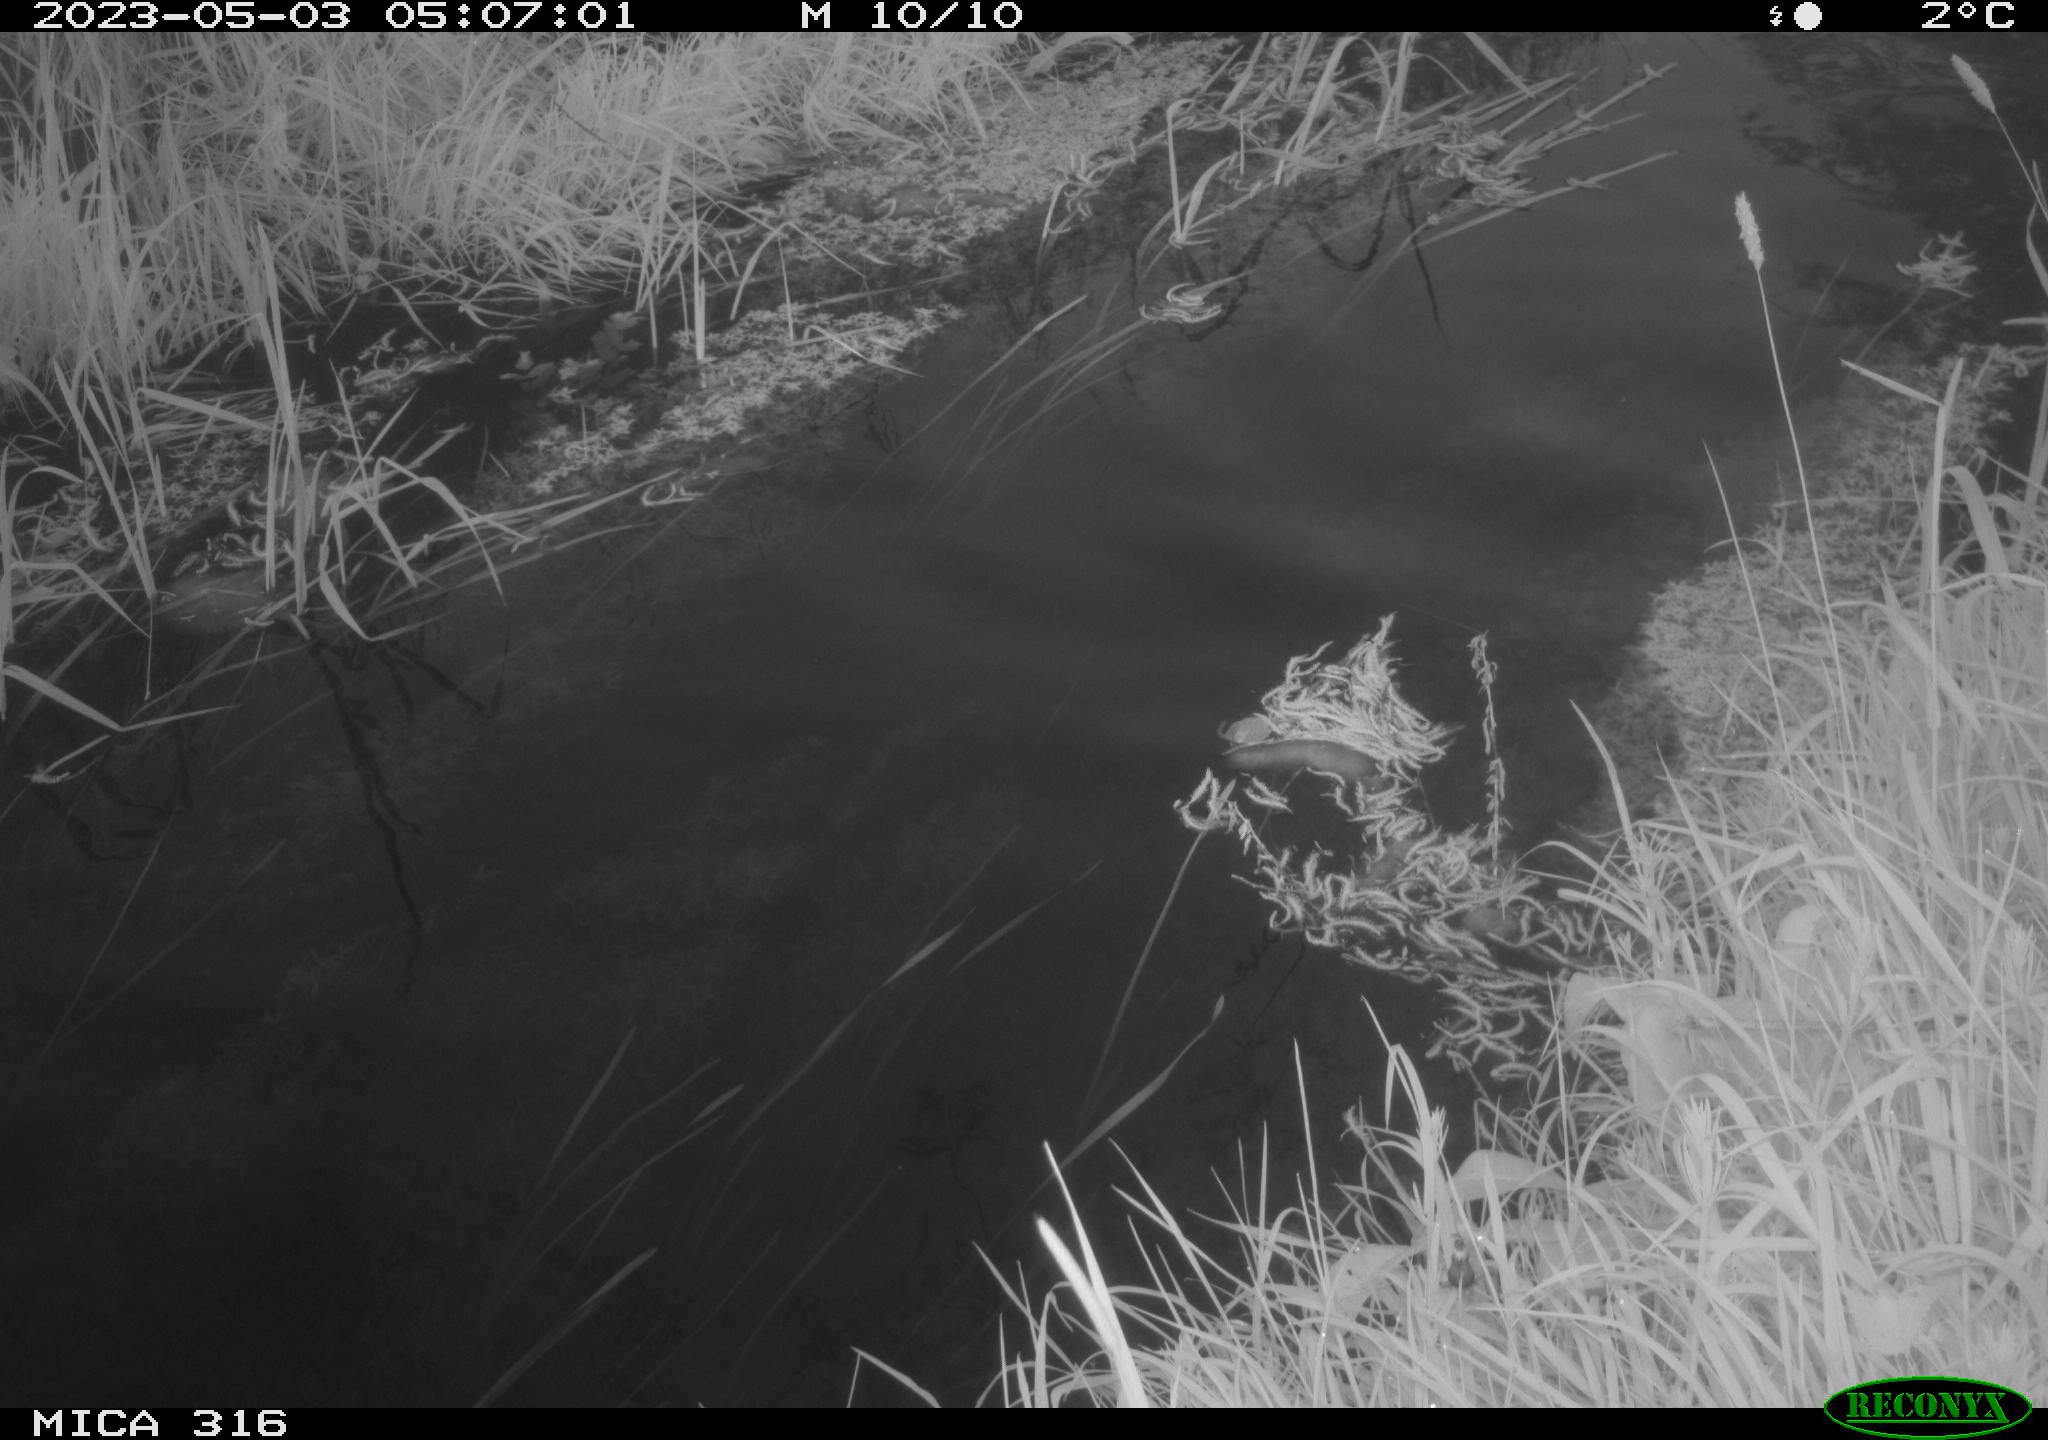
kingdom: Animalia
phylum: Chordata
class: Aves
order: Anseriformes
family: Anatidae
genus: Anas
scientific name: Anas
